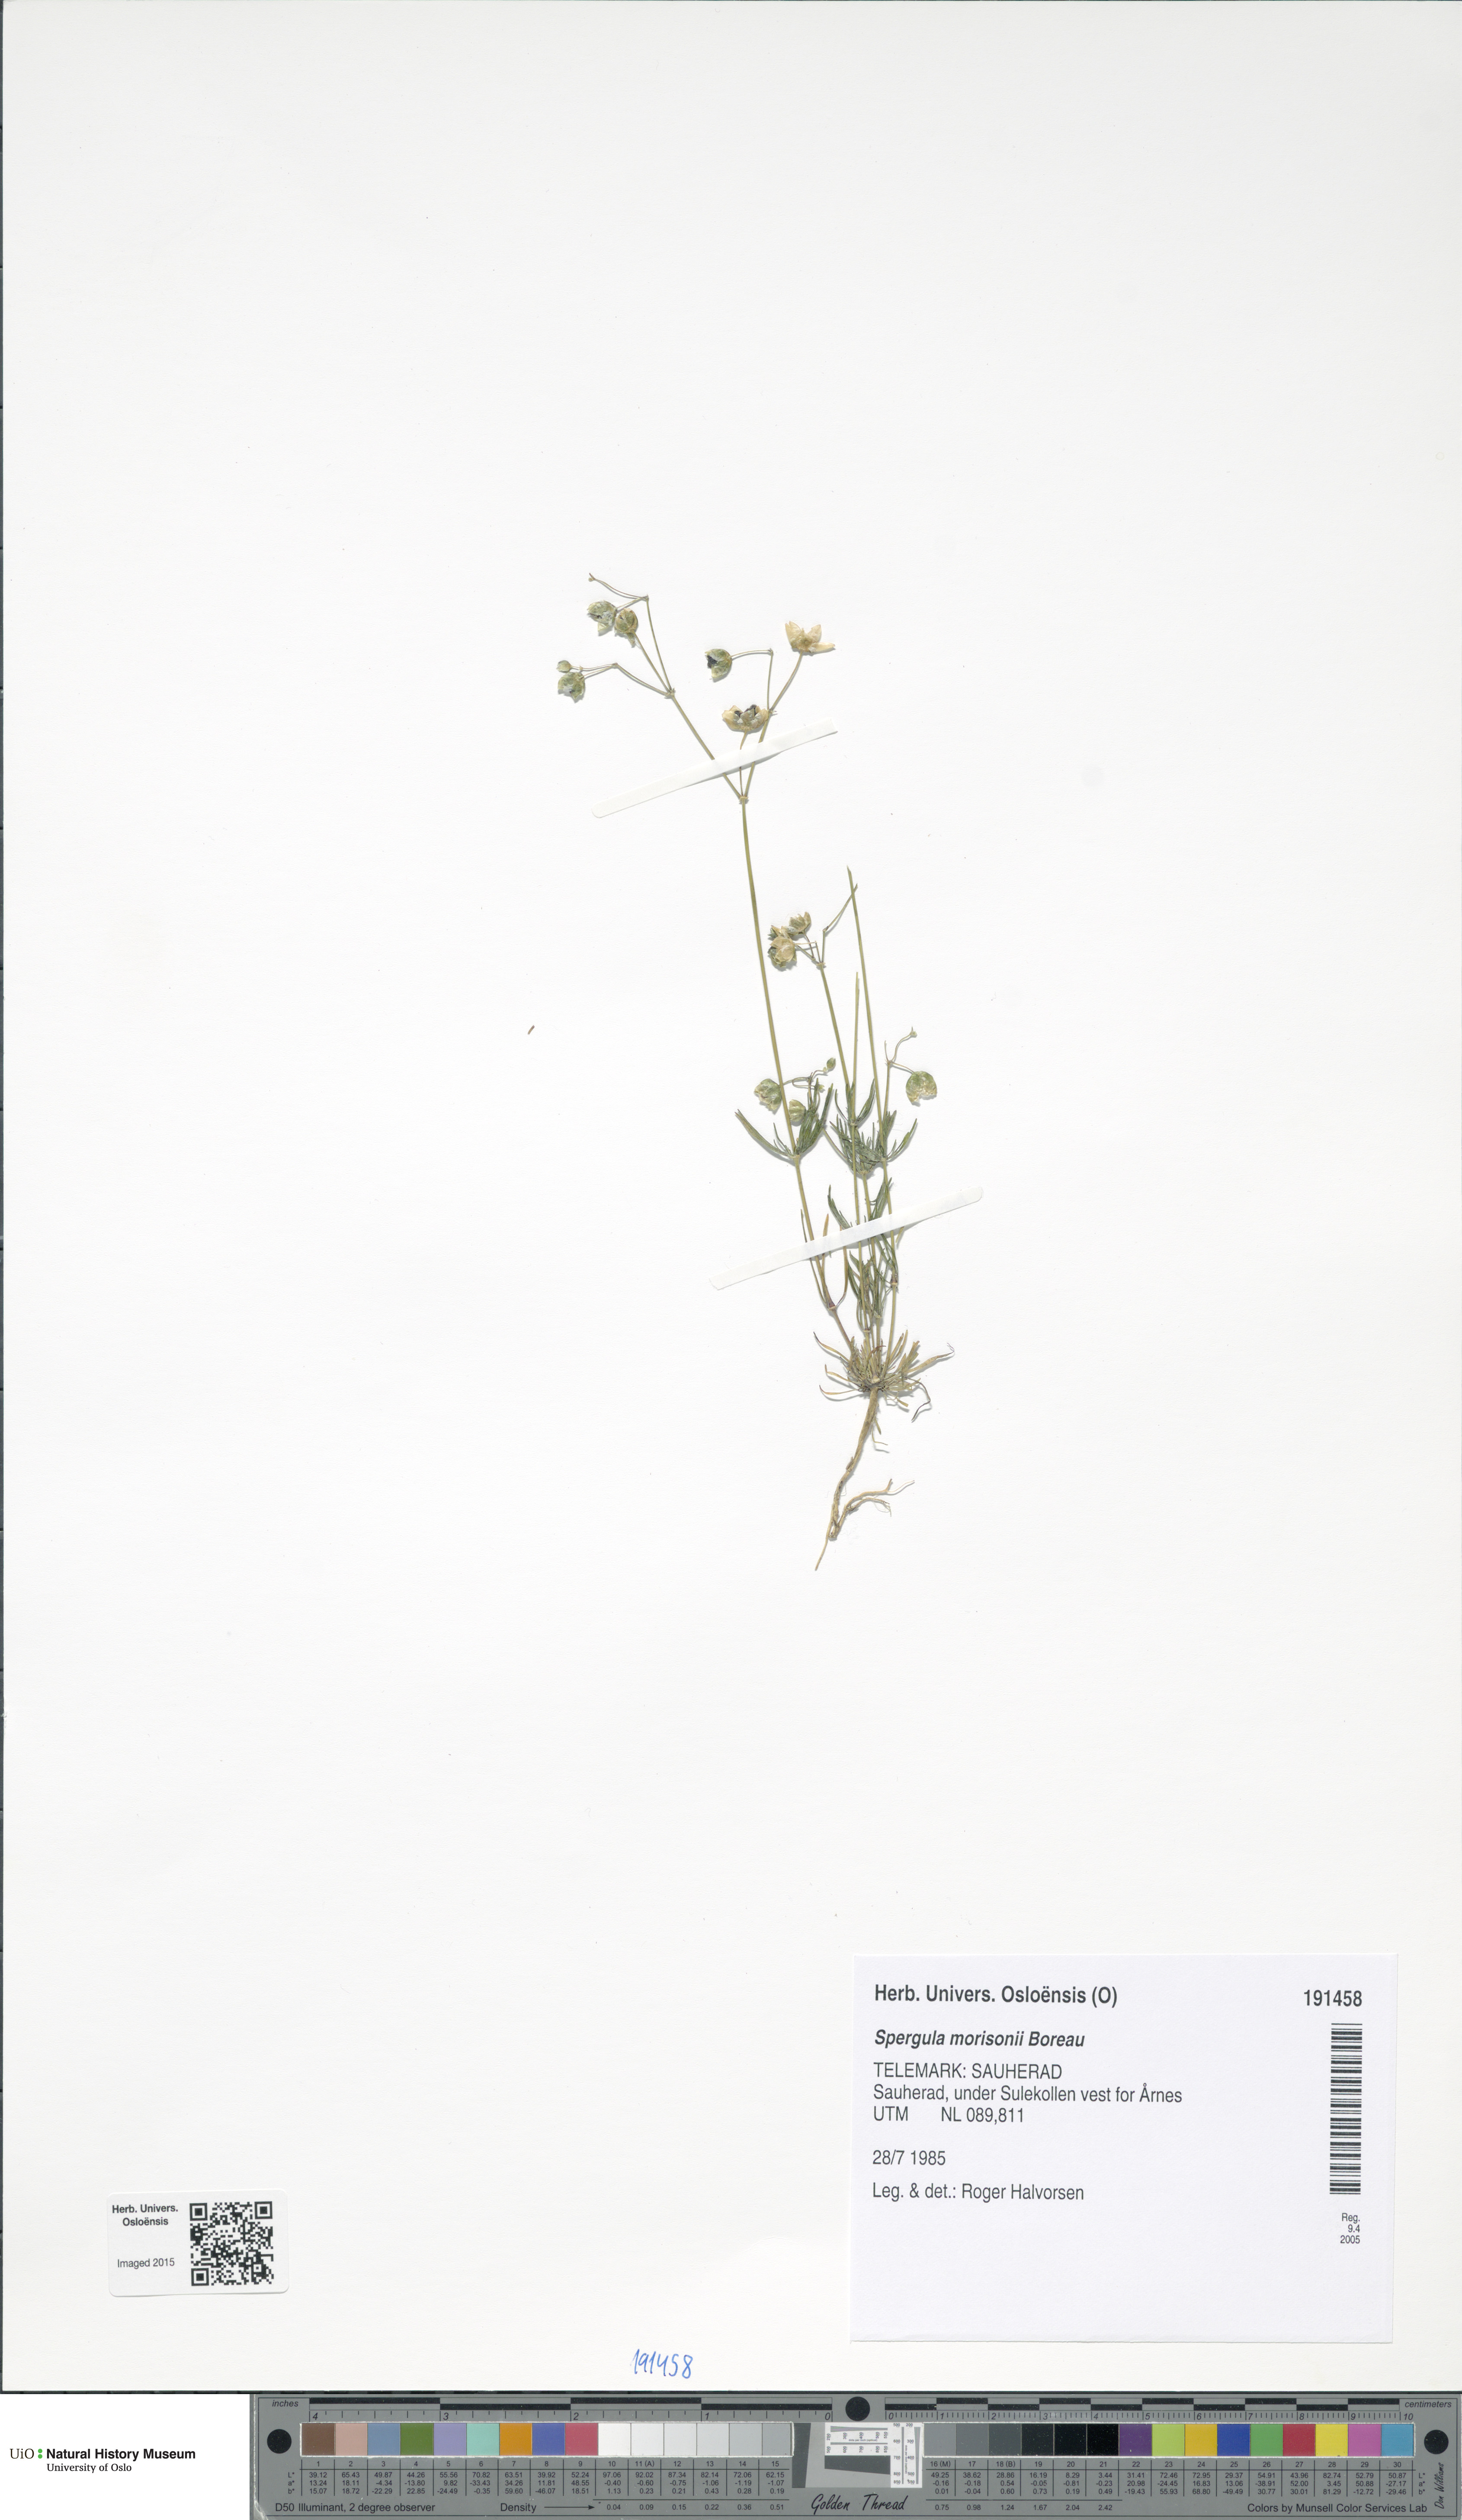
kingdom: Plantae
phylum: Tracheophyta
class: Magnoliopsida
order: Caryophyllales
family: Caryophyllaceae
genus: Spergula
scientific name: Spergula morisonii
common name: Pearlwort spurrey
